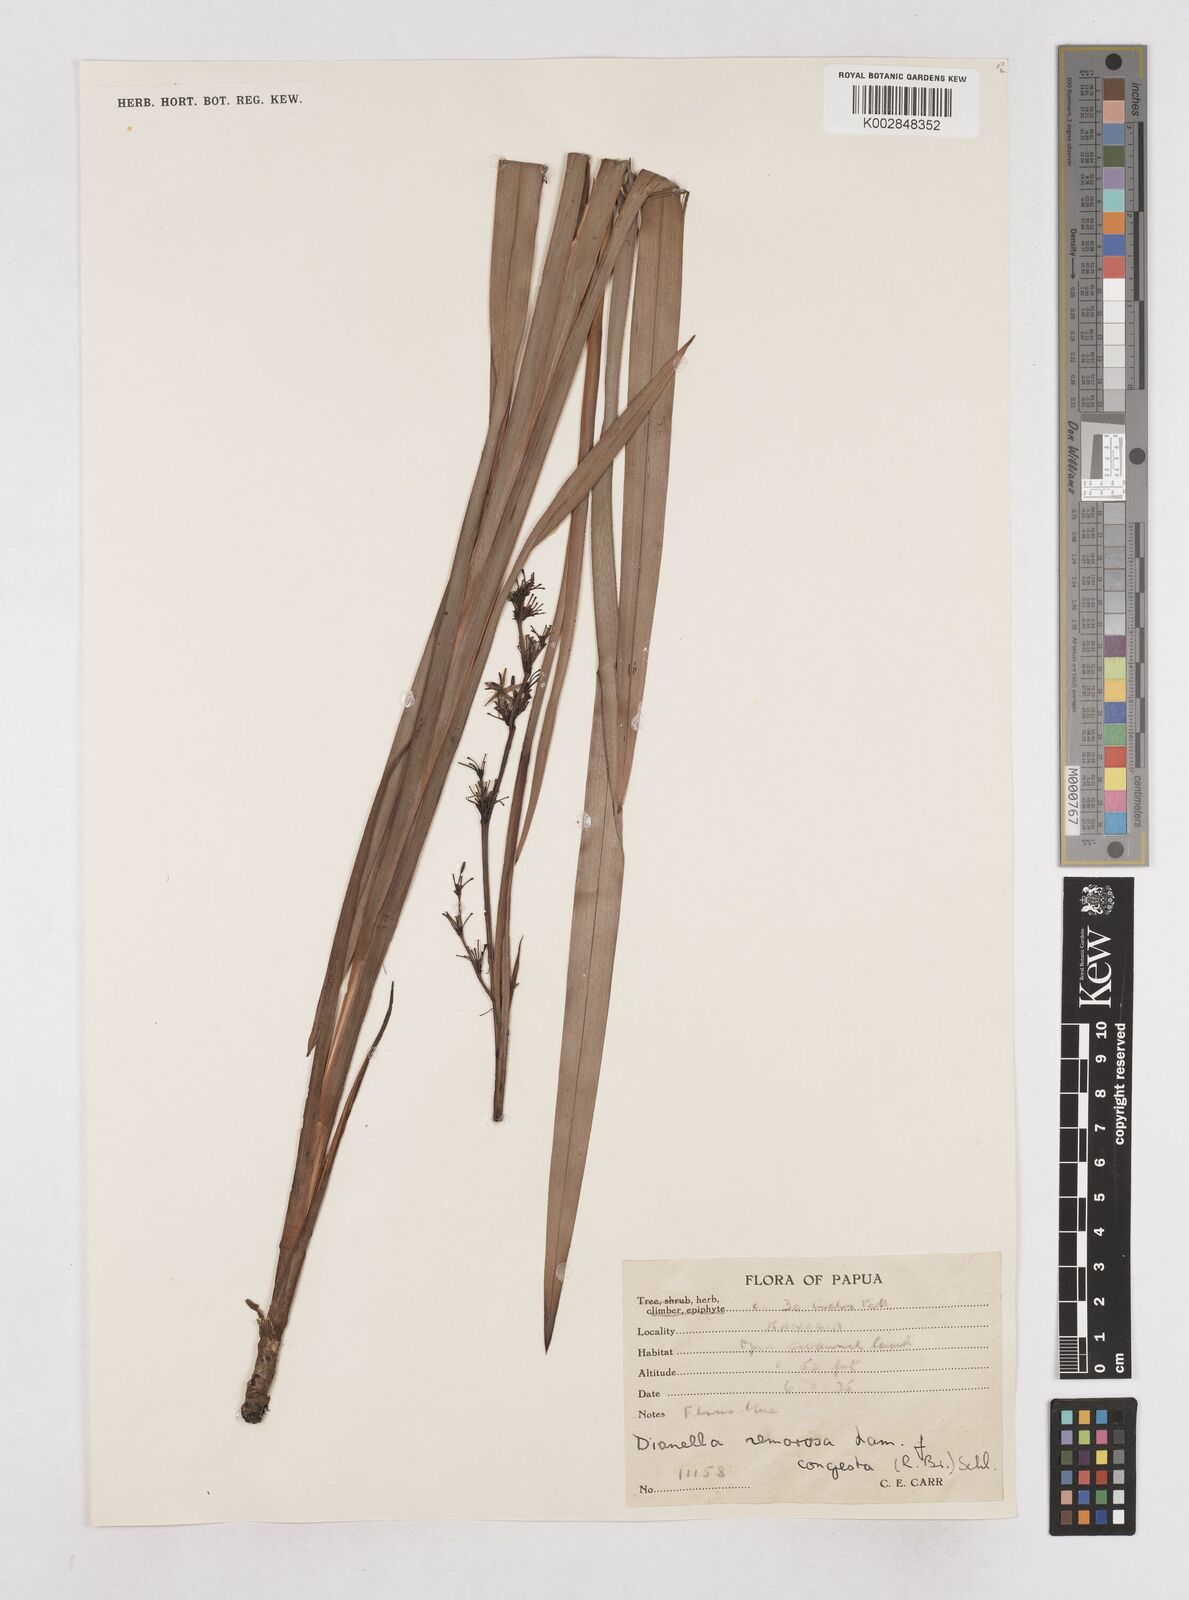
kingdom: Plantae
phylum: Tracheophyta
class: Liliopsida
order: Asparagales
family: Asphodelaceae
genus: Dianella
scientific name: Dianella congesta
